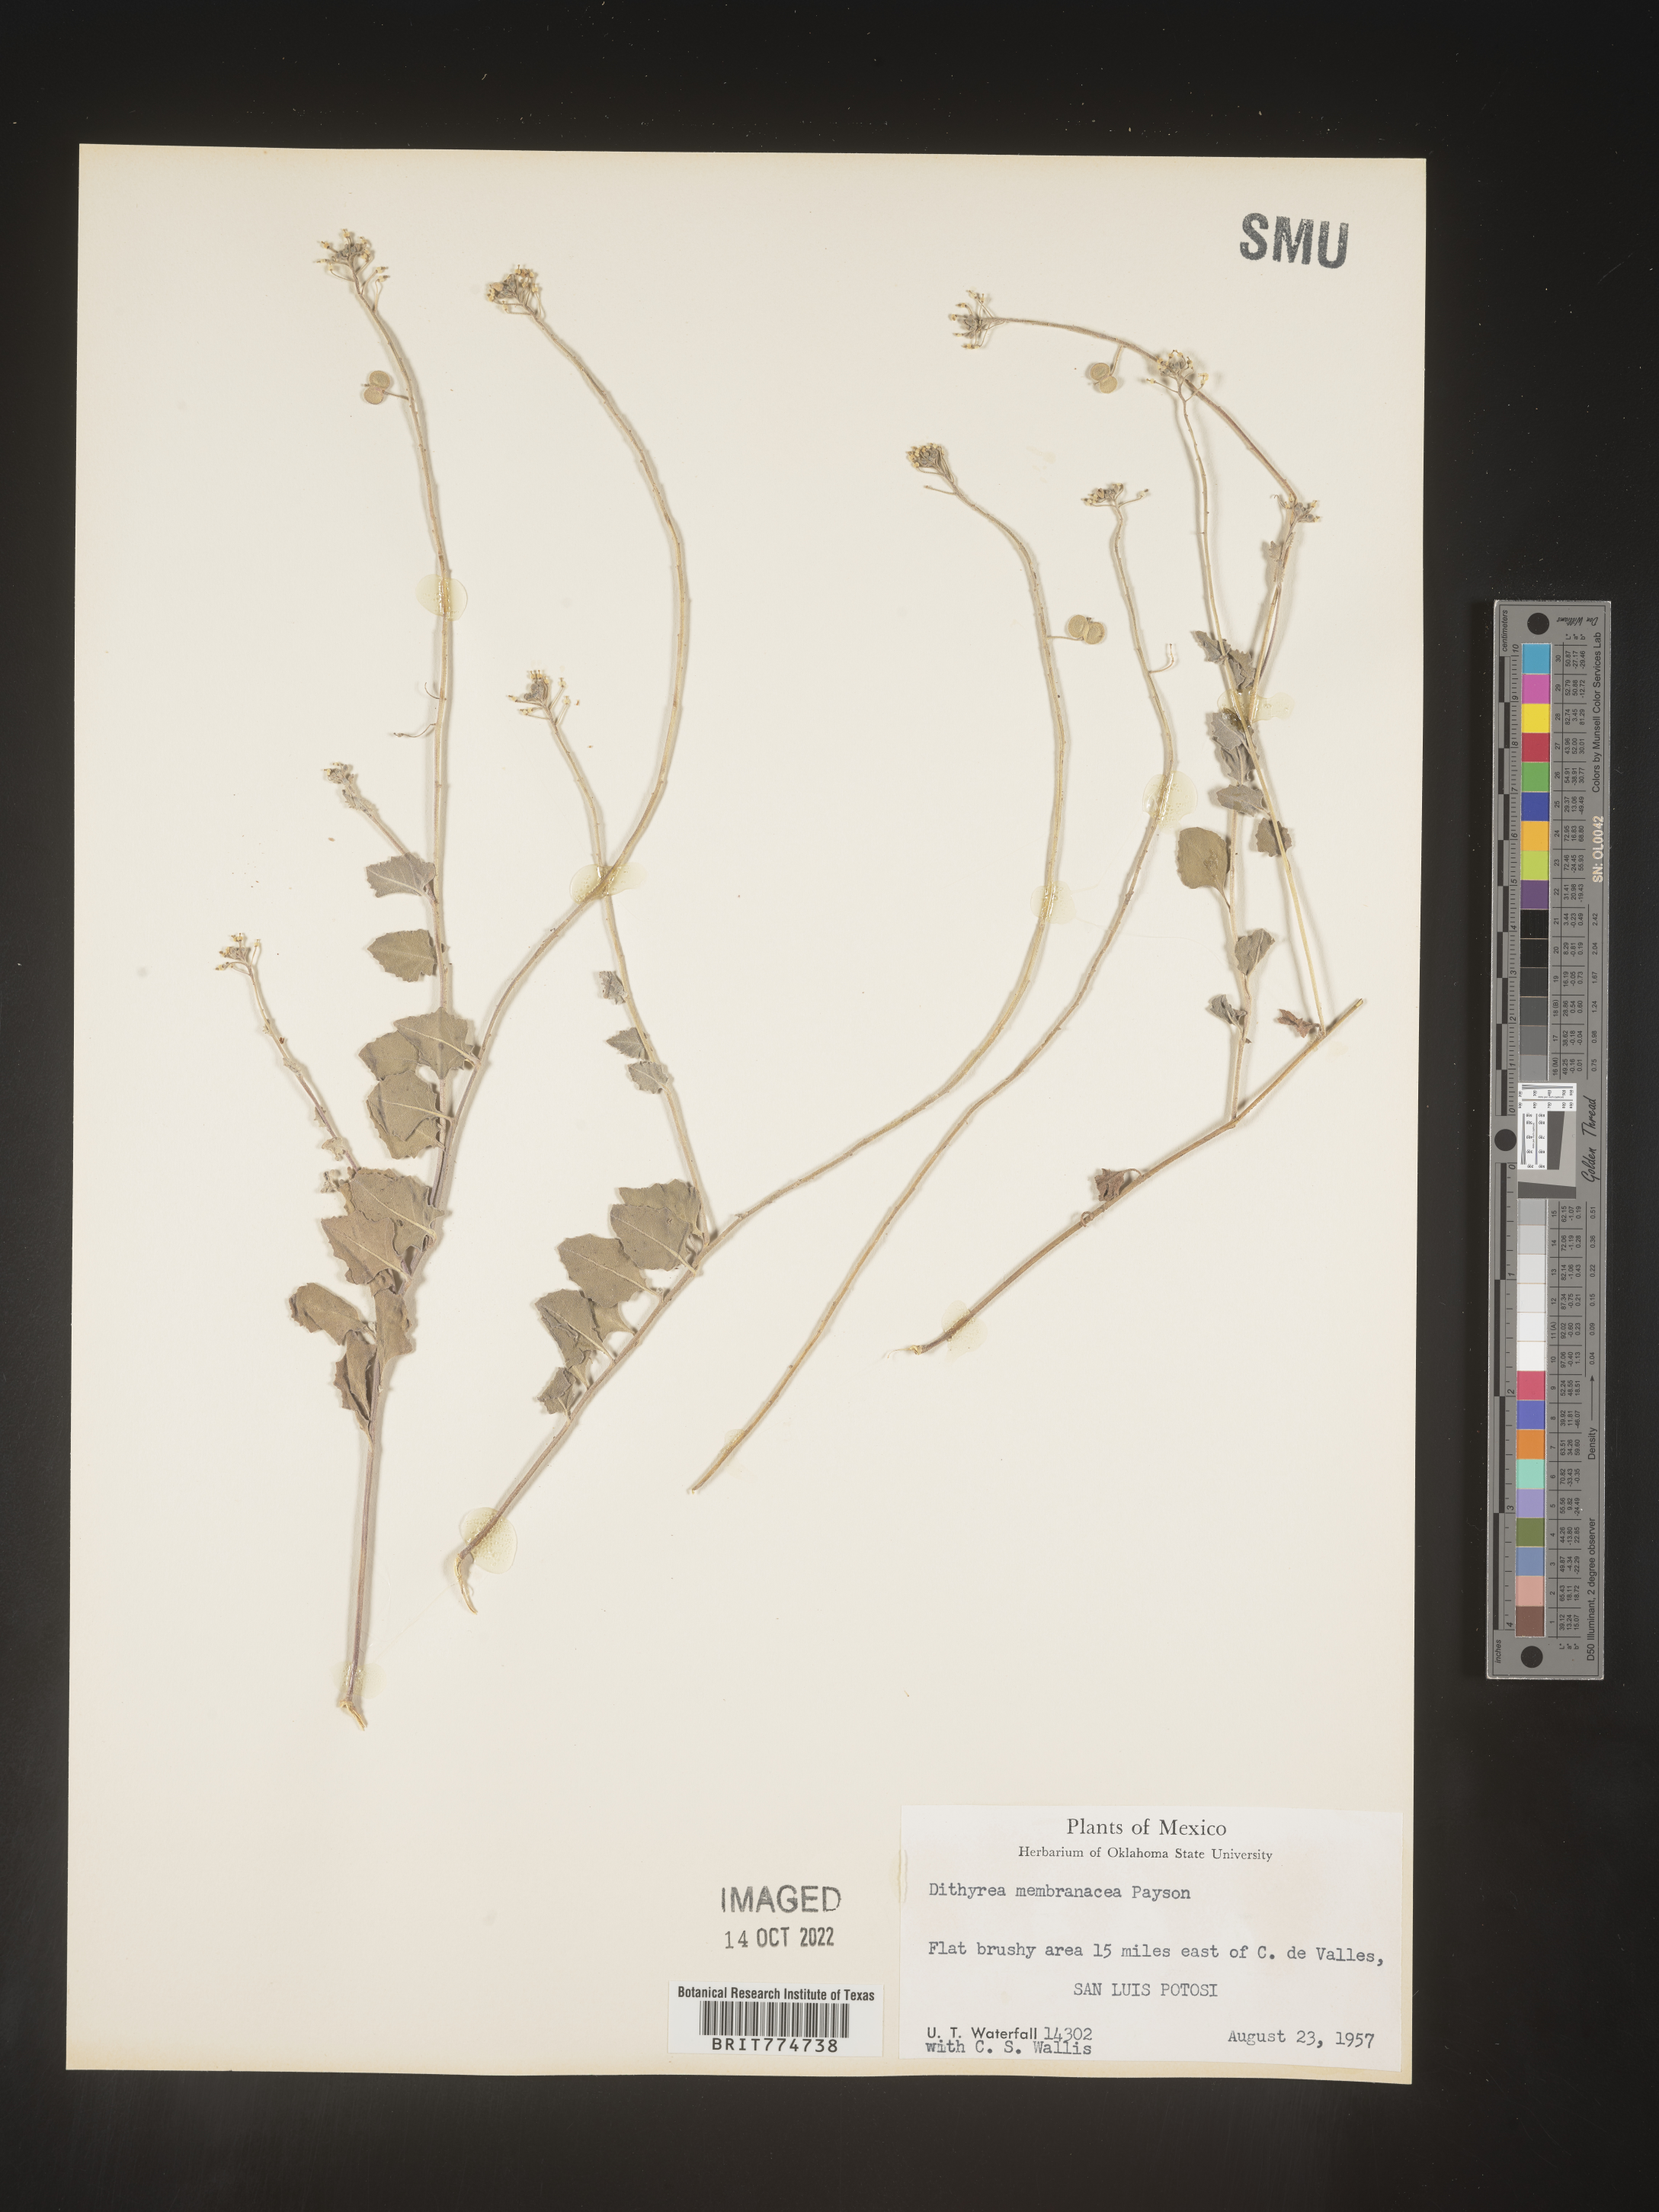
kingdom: Plantae
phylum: Tracheophyta
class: Magnoliopsida
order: Brassicales
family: Brassicaceae
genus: Dithyrea
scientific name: Dithyrea
